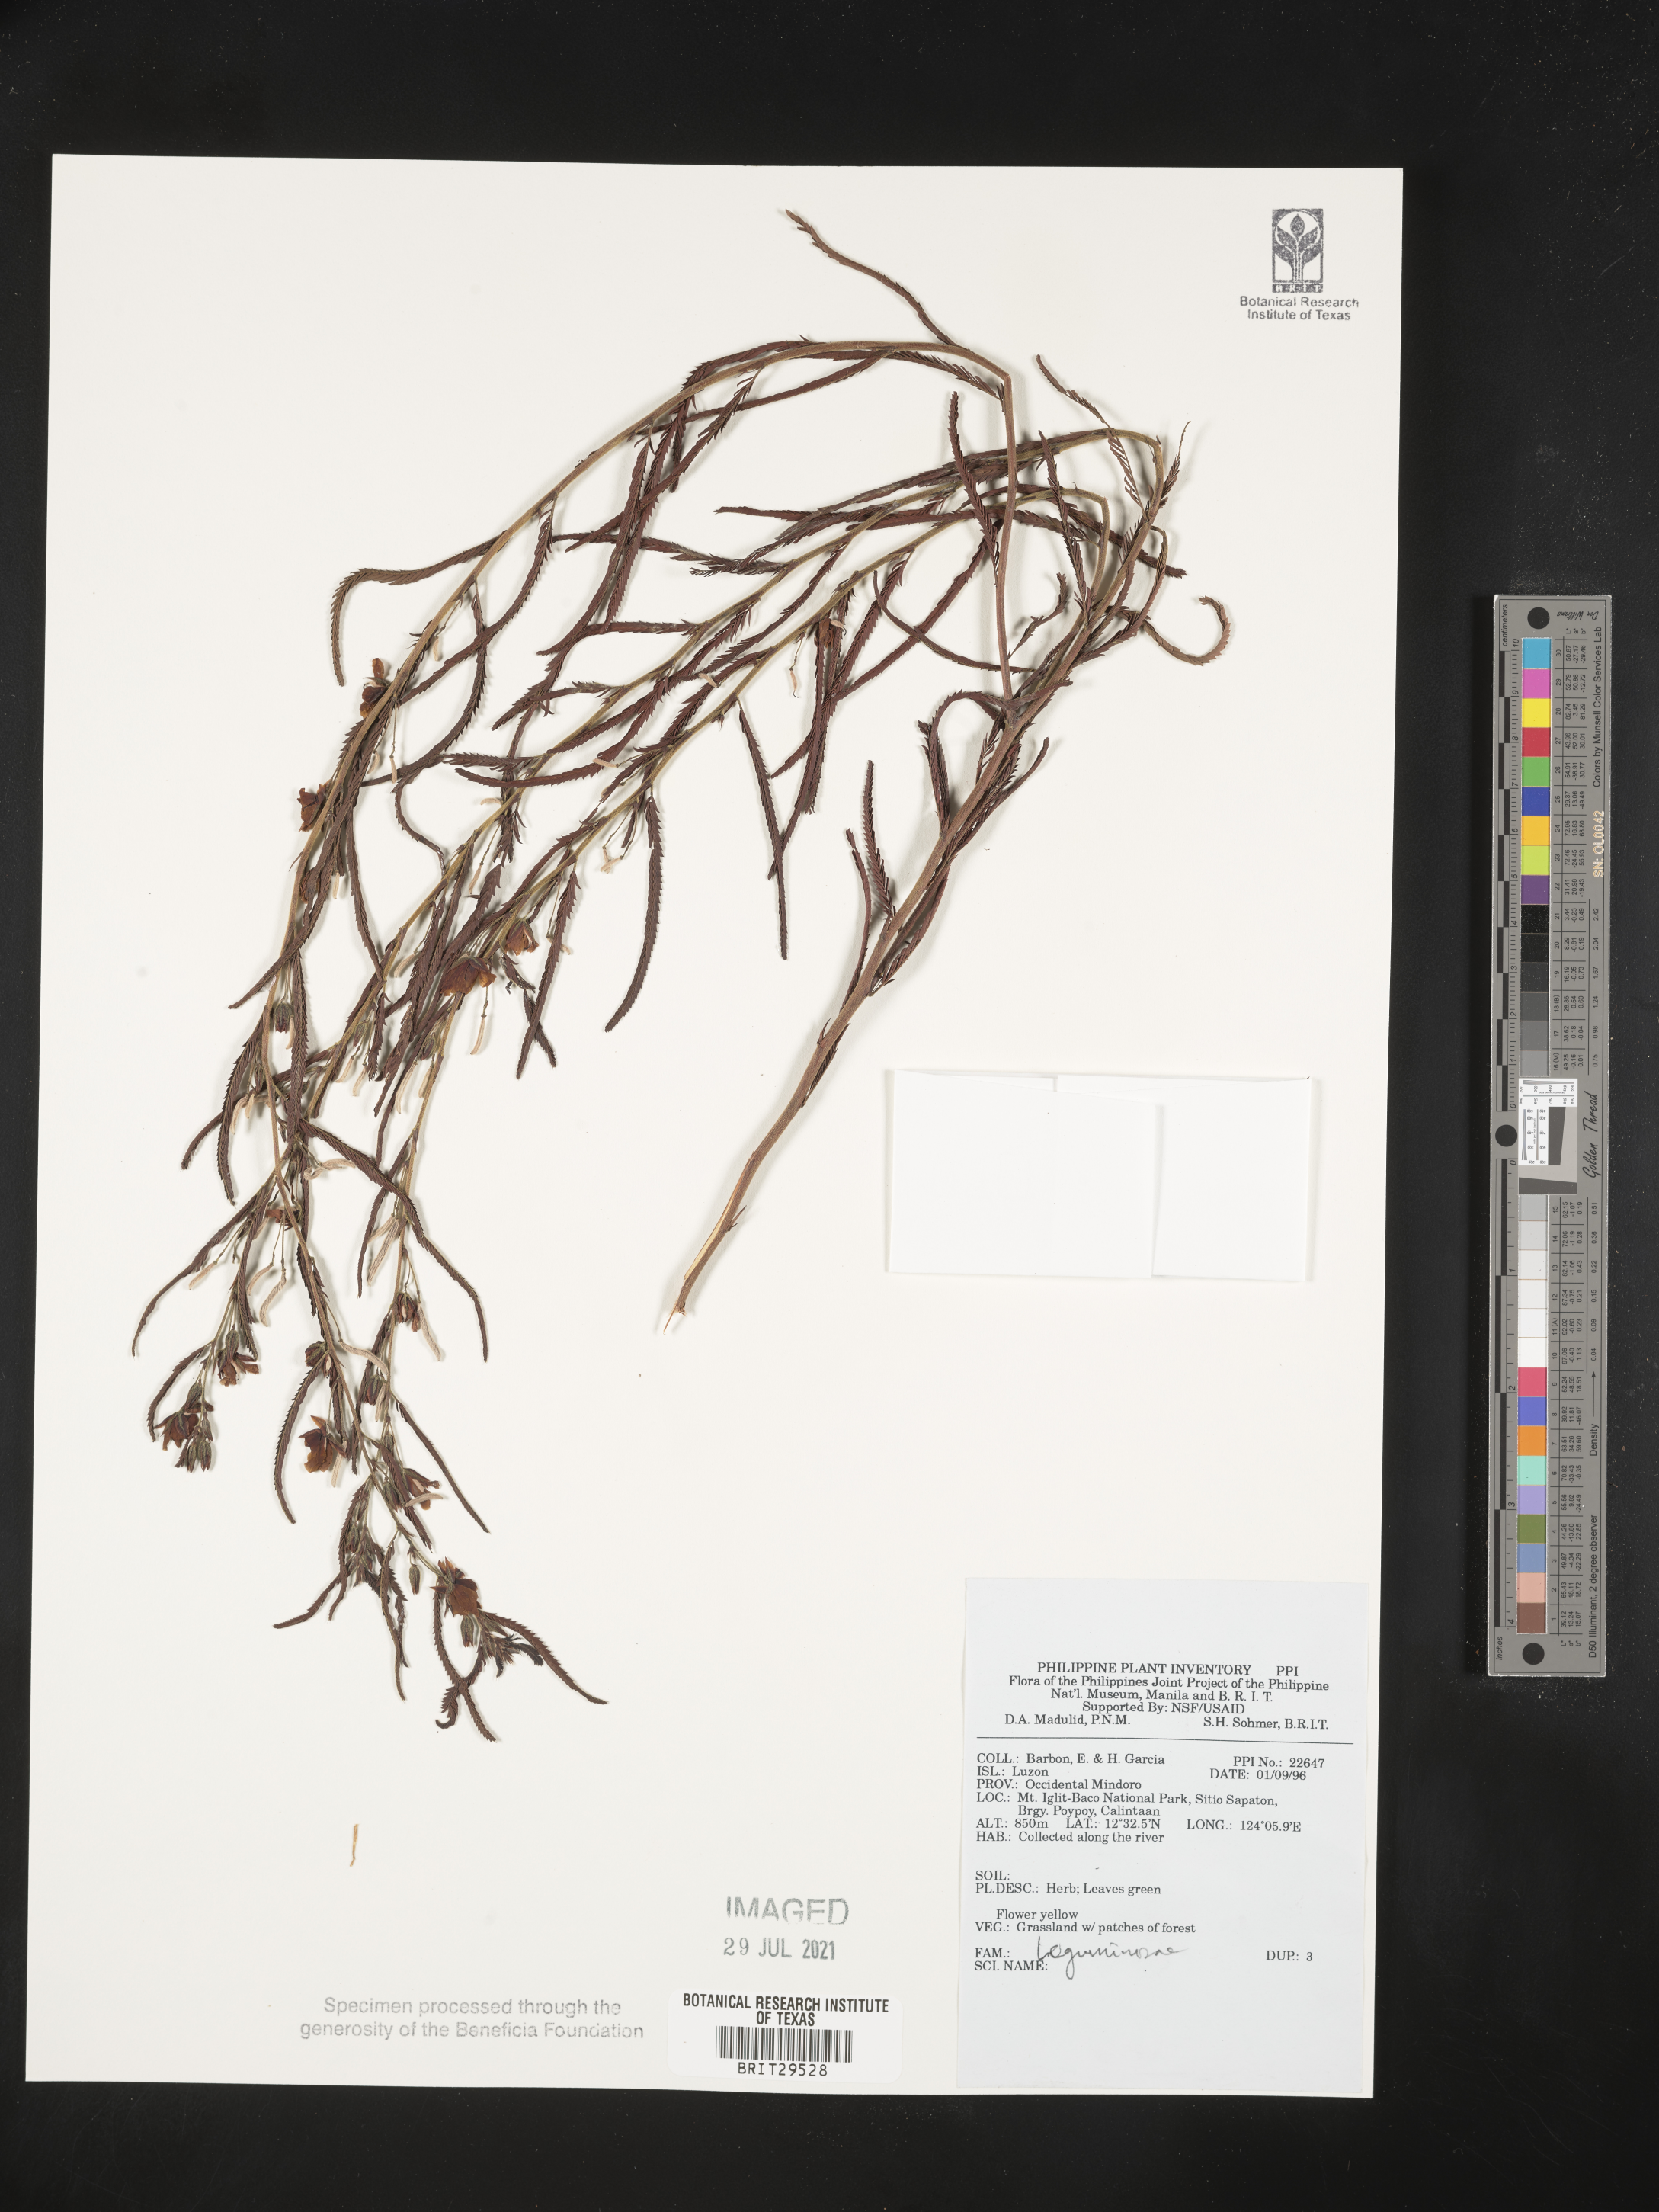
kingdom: Plantae
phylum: Tracheophyta
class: Magnoliopsida
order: Fabales
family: Fabaceae
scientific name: Fabaceae
